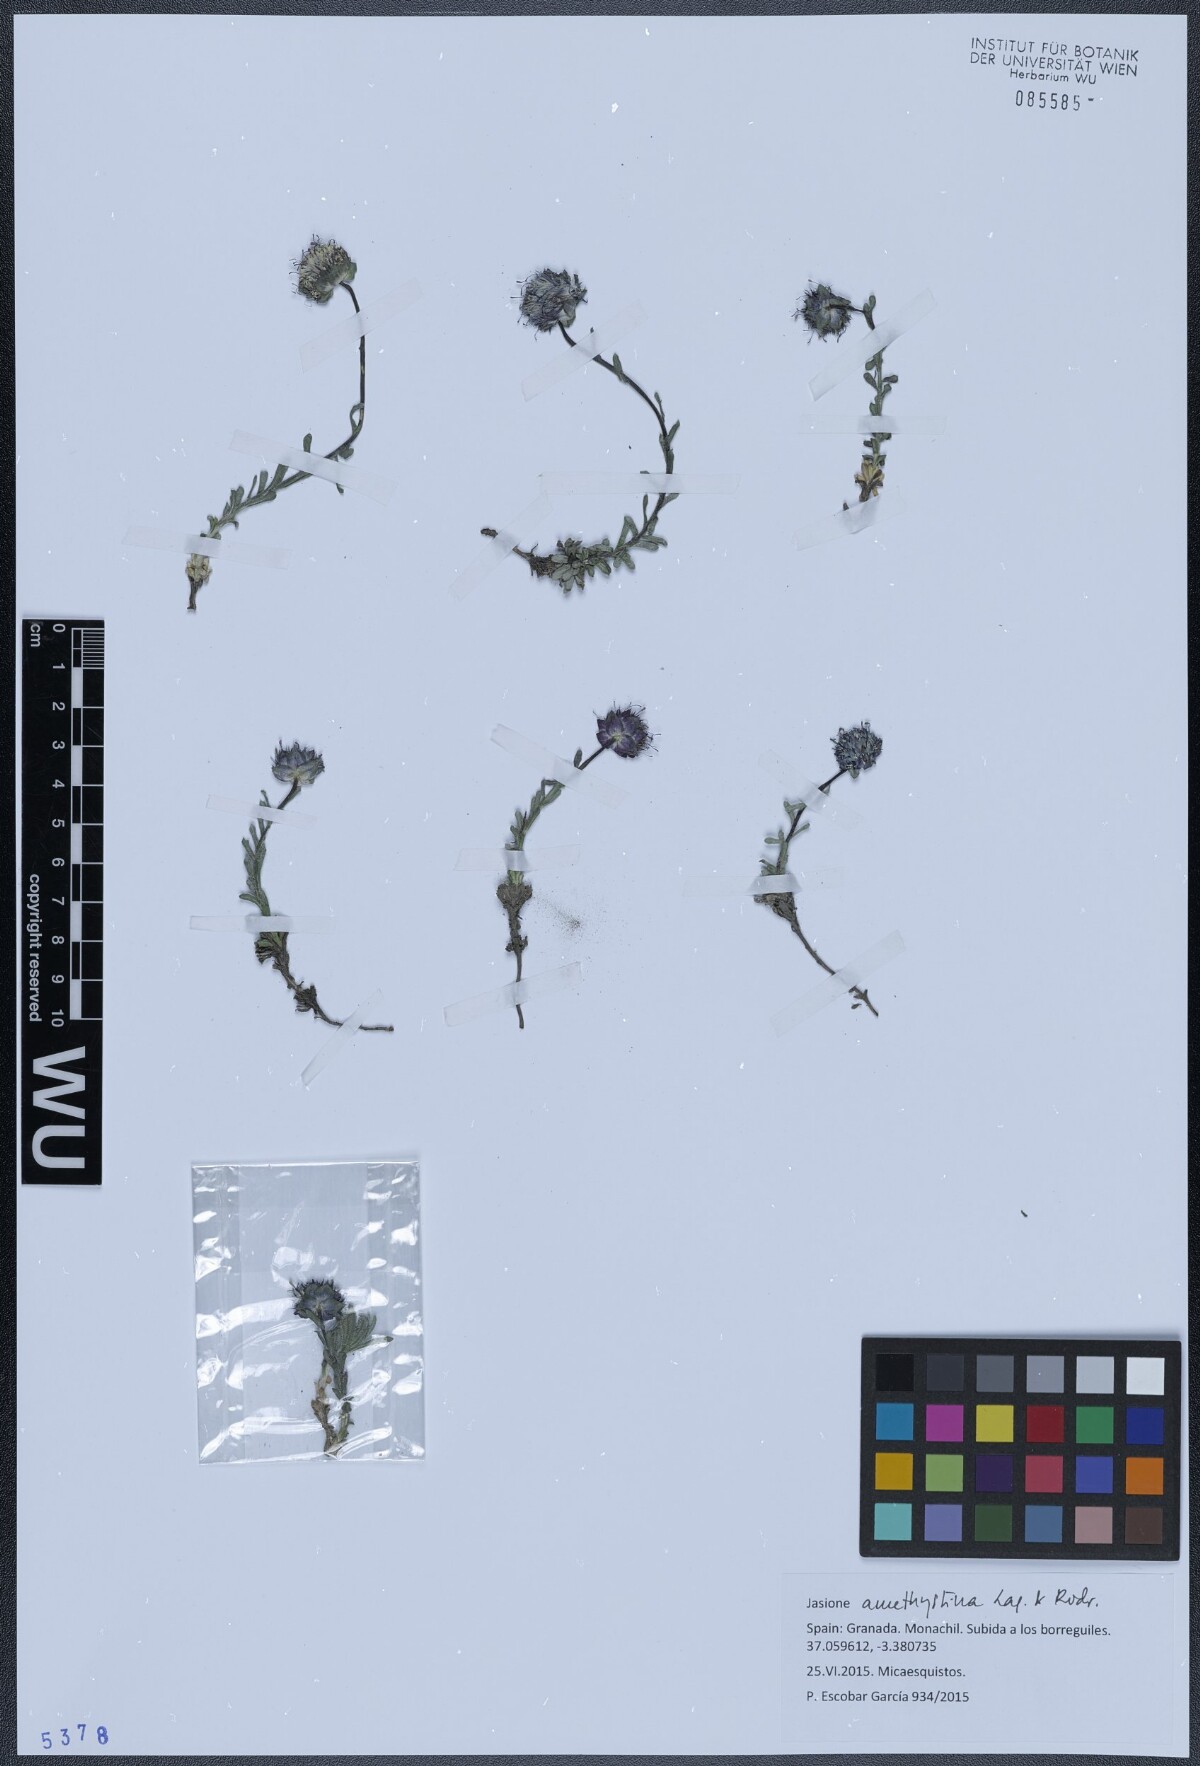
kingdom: Plantae
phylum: Tracheophyta
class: Magnoliopsida
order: Asterales
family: Campanulaceae
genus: Jasione
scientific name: Jasione crispa
